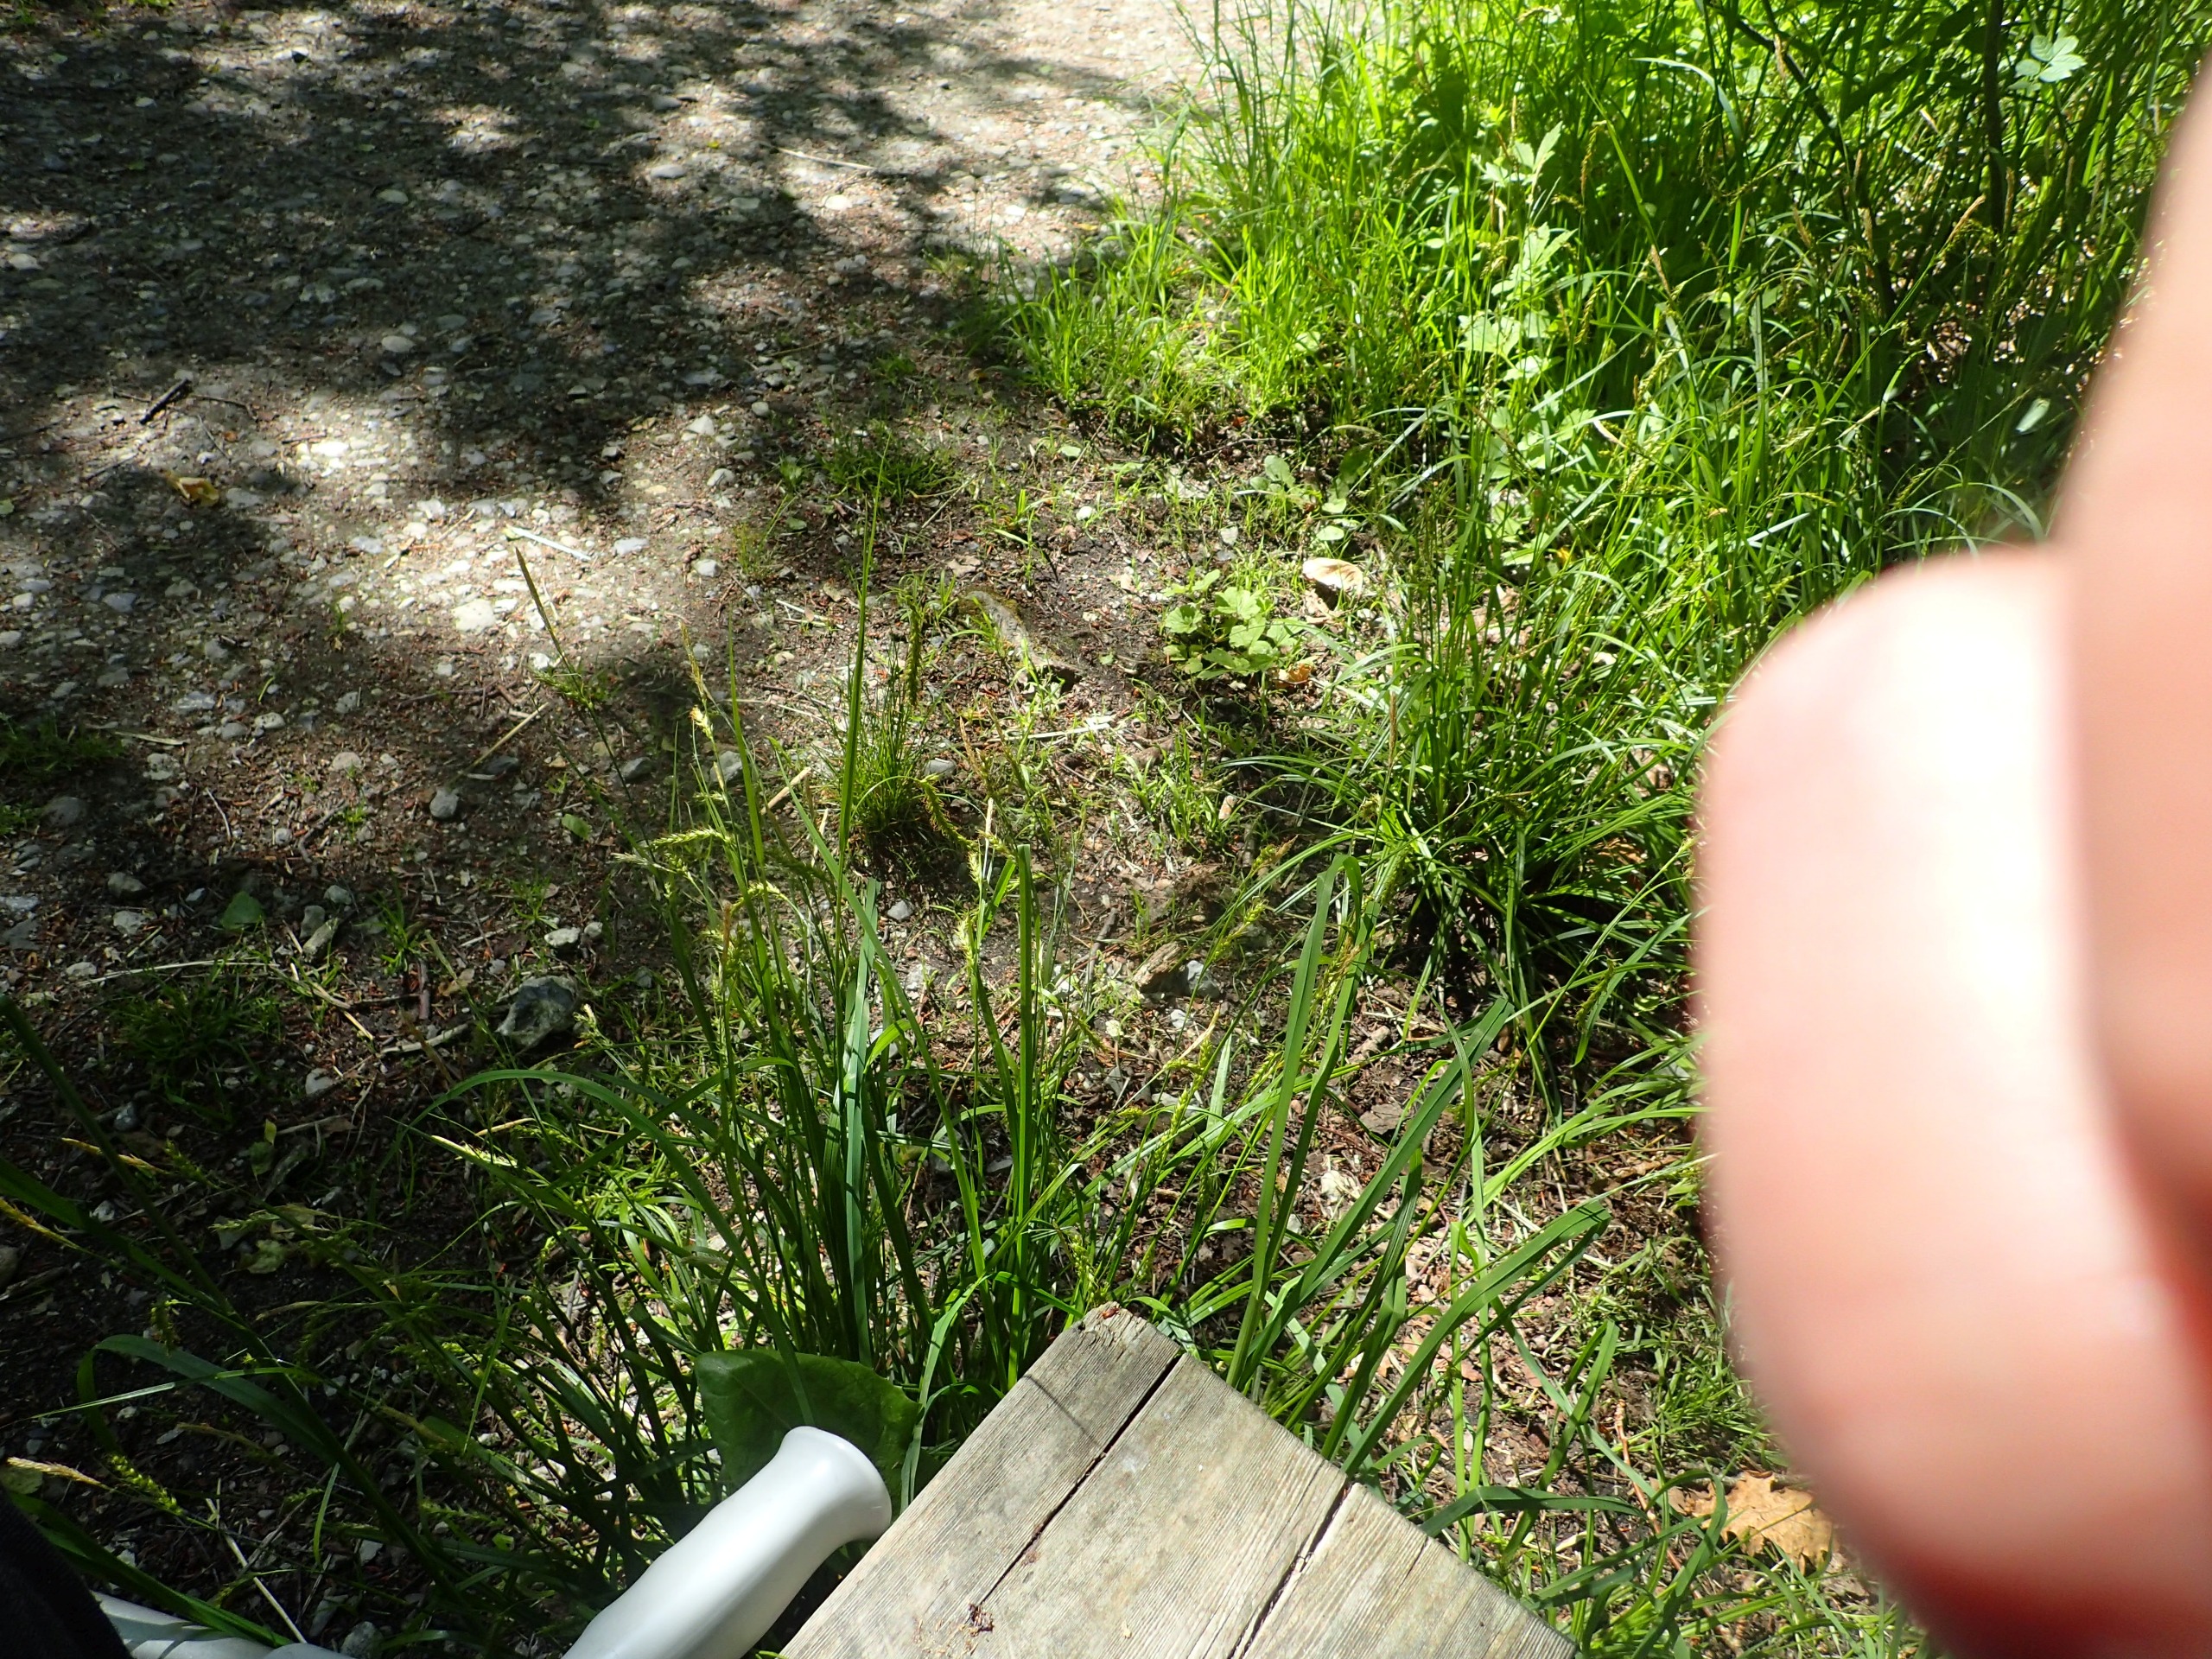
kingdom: Plantae
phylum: Tracheophyta
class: Liliopsida
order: Poales
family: Cyperaceae
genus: Carex
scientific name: Carex sylvatica
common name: Skov-star
